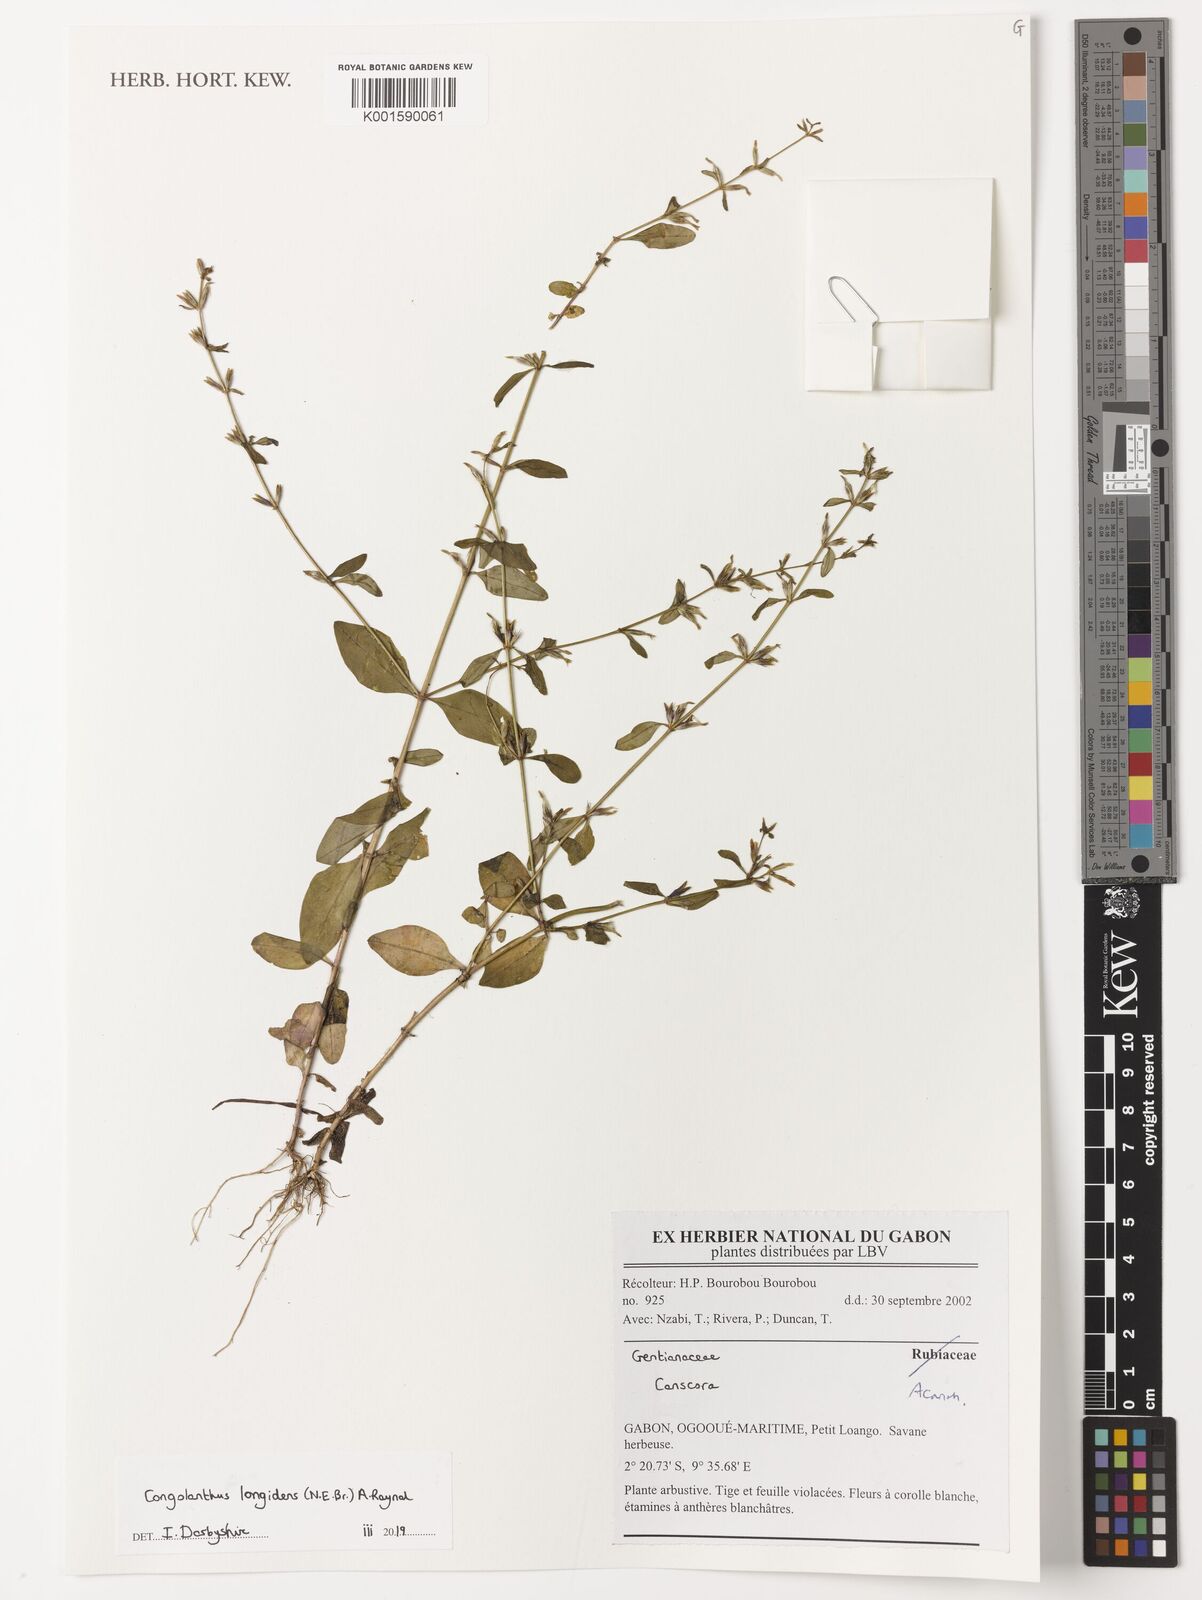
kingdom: Plantae
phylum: Tracheophyta
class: Magnoliopsida
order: Gentianales
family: Gentianaceae
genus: Congolanthus
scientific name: Congolanthus longidens
